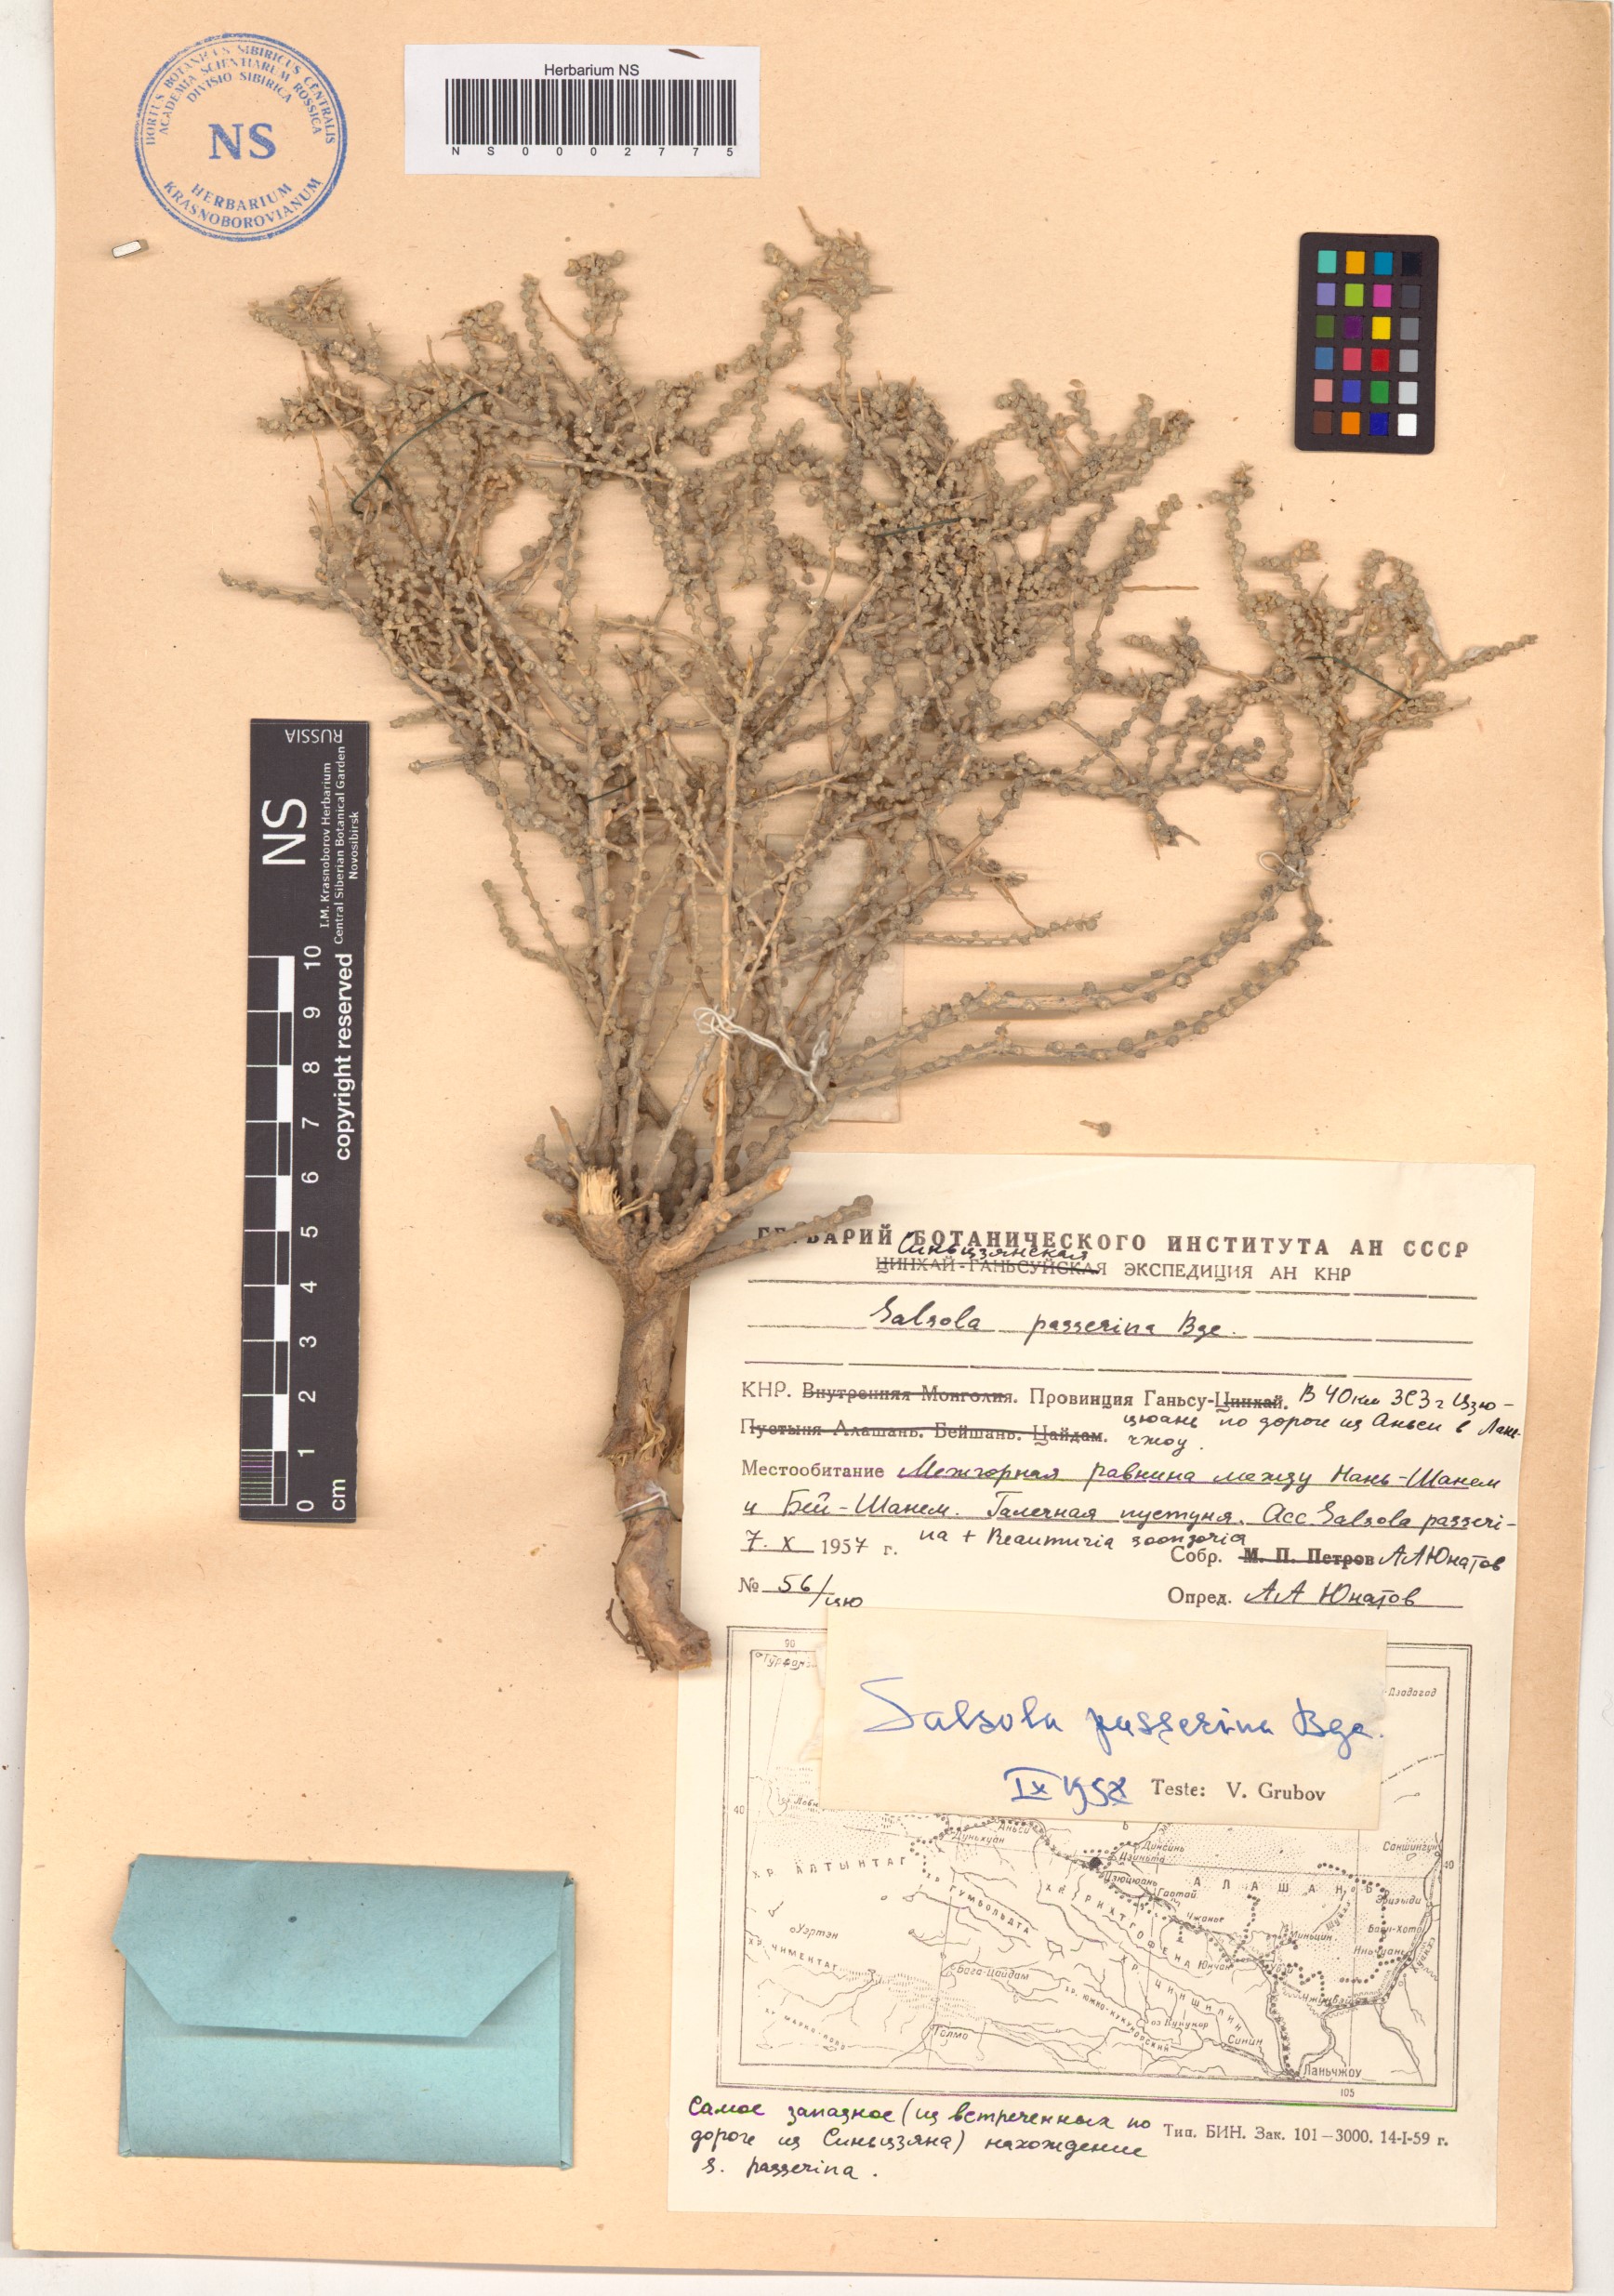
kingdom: Plantae
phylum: Tracheophyta
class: Magnoliopsida
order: Caryophyllales
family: Amaranthaceae
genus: Caroxylon
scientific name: Caroxylon passerinum
